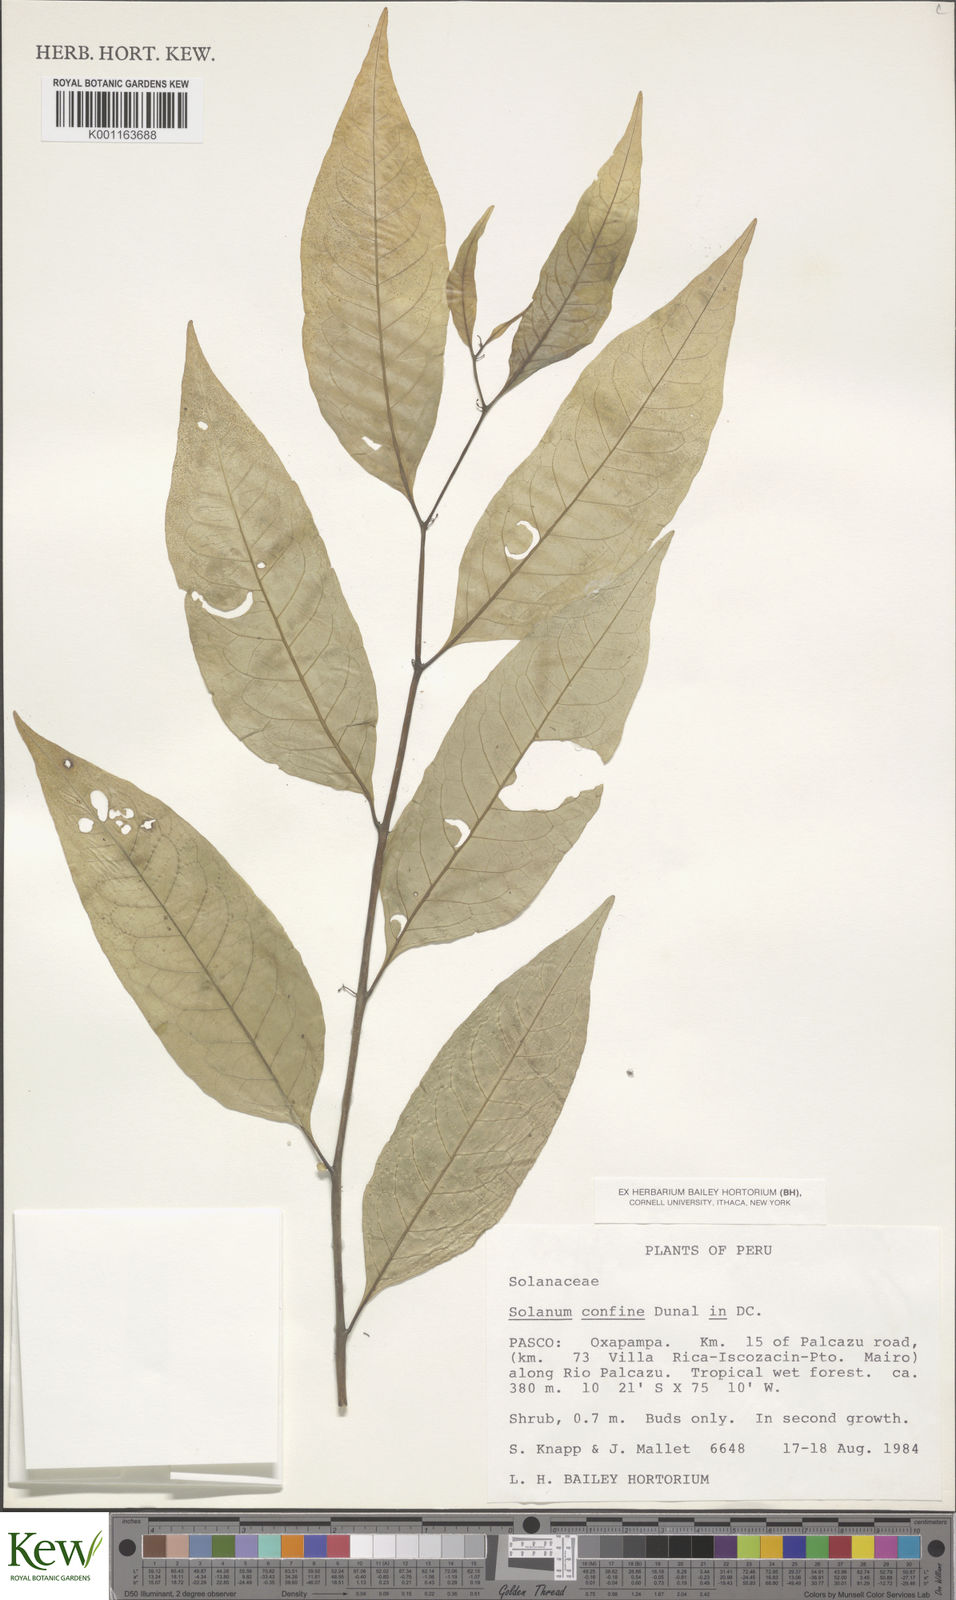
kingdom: Plantae
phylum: Tracheophyta
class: Magnoliopsida
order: Solanales
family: Solanaceae
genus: Solanum
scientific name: Solanum confine
